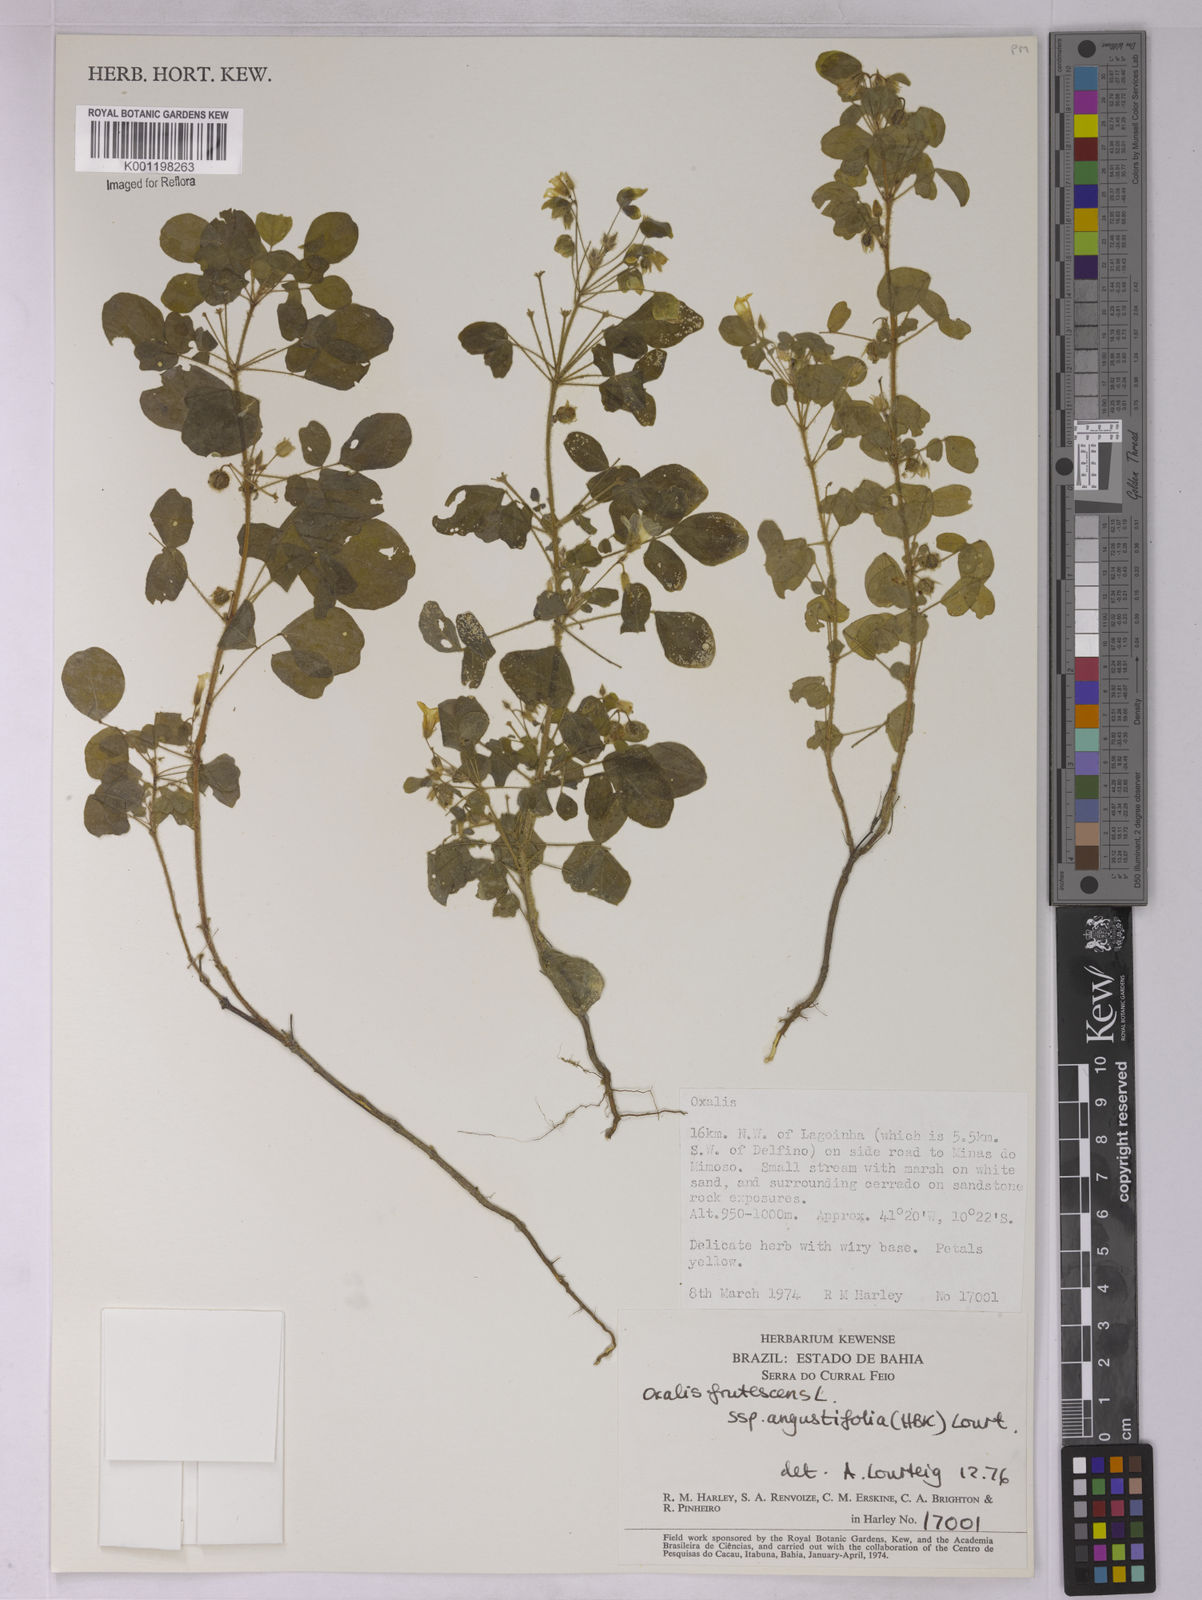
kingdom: Plantae
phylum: Tracheophyta
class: Magnoliopsida
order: Oxalidales
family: Oxalidaceae
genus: Oxalis
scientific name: Oxalis frutescens
